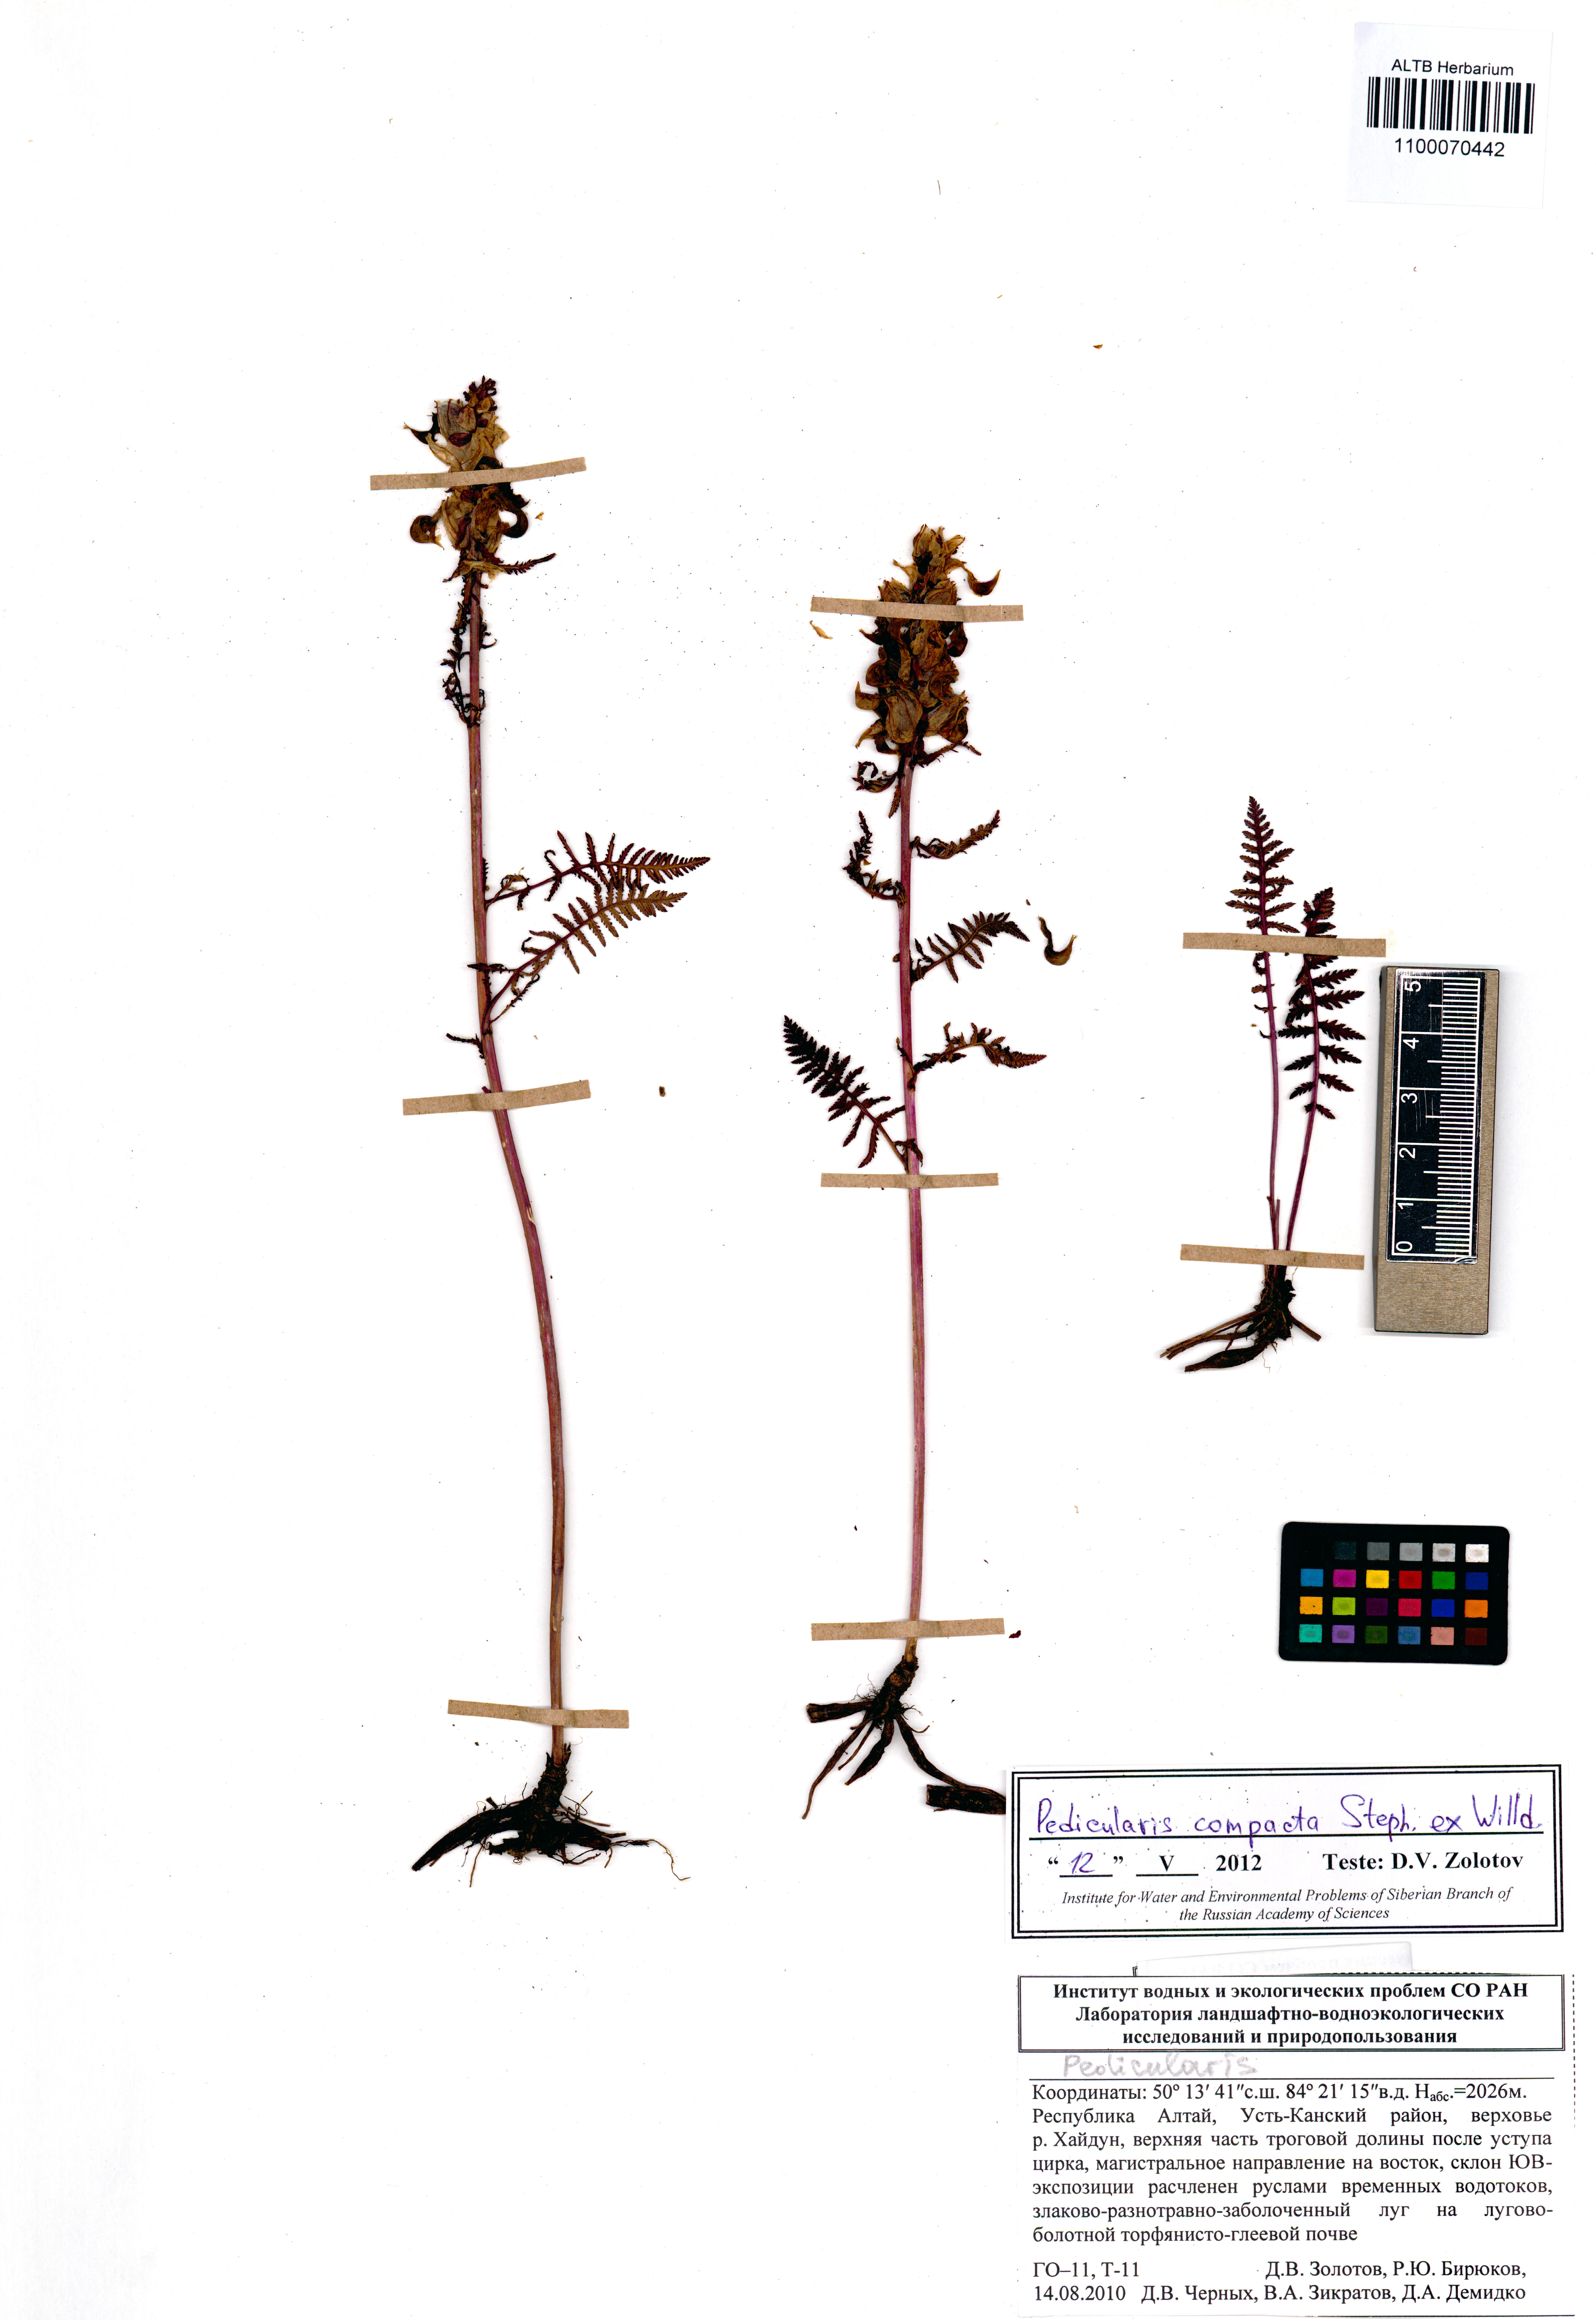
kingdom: Plantae
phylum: Tracheophyta
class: Magnoliopsida
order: Lamiales
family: Orobanchaceae
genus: Pedicularis
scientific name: Pedicularis compacta
